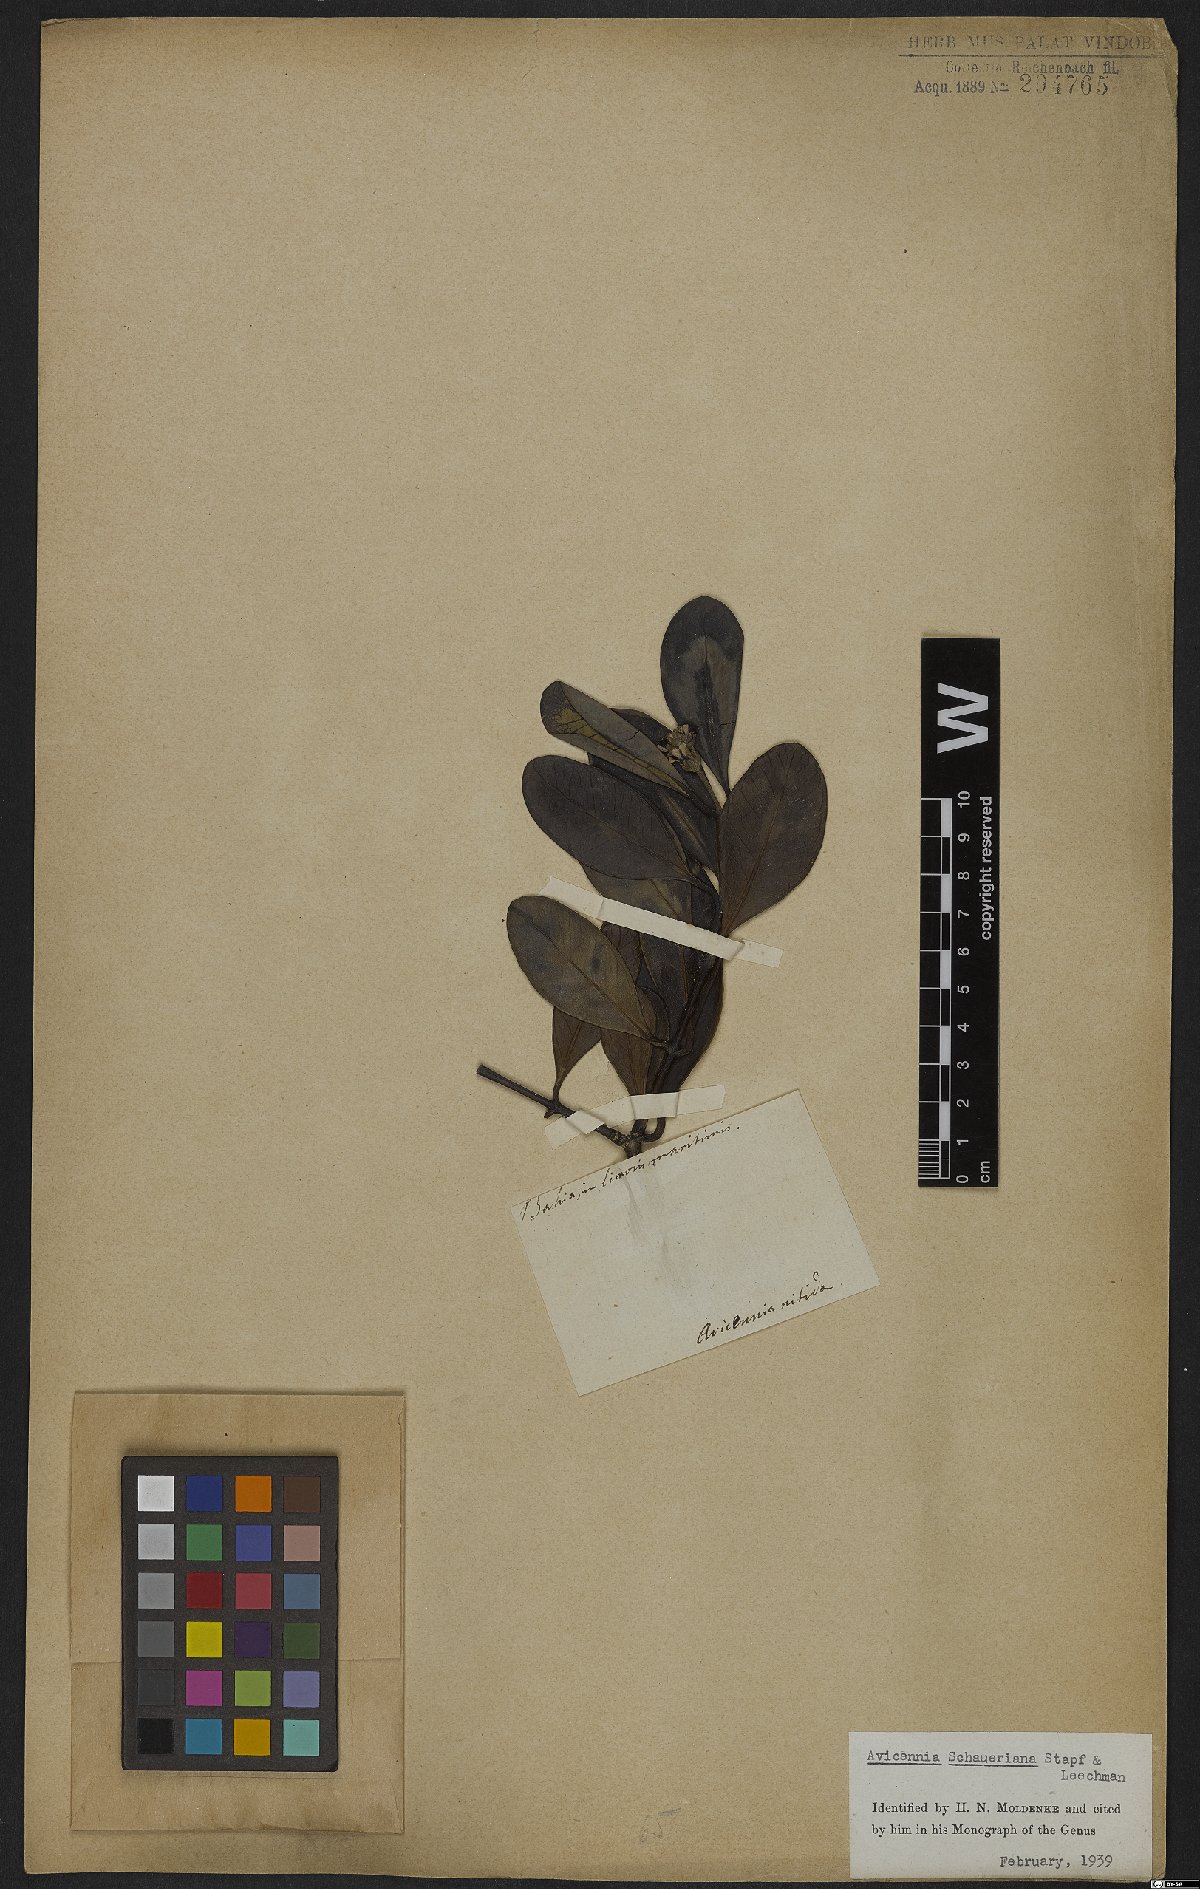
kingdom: Plantae
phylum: Tracheophyta
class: Magnoliopsida
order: Lamiales
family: Acanthaceae
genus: Avicennia
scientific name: Avicennia schaueriana
